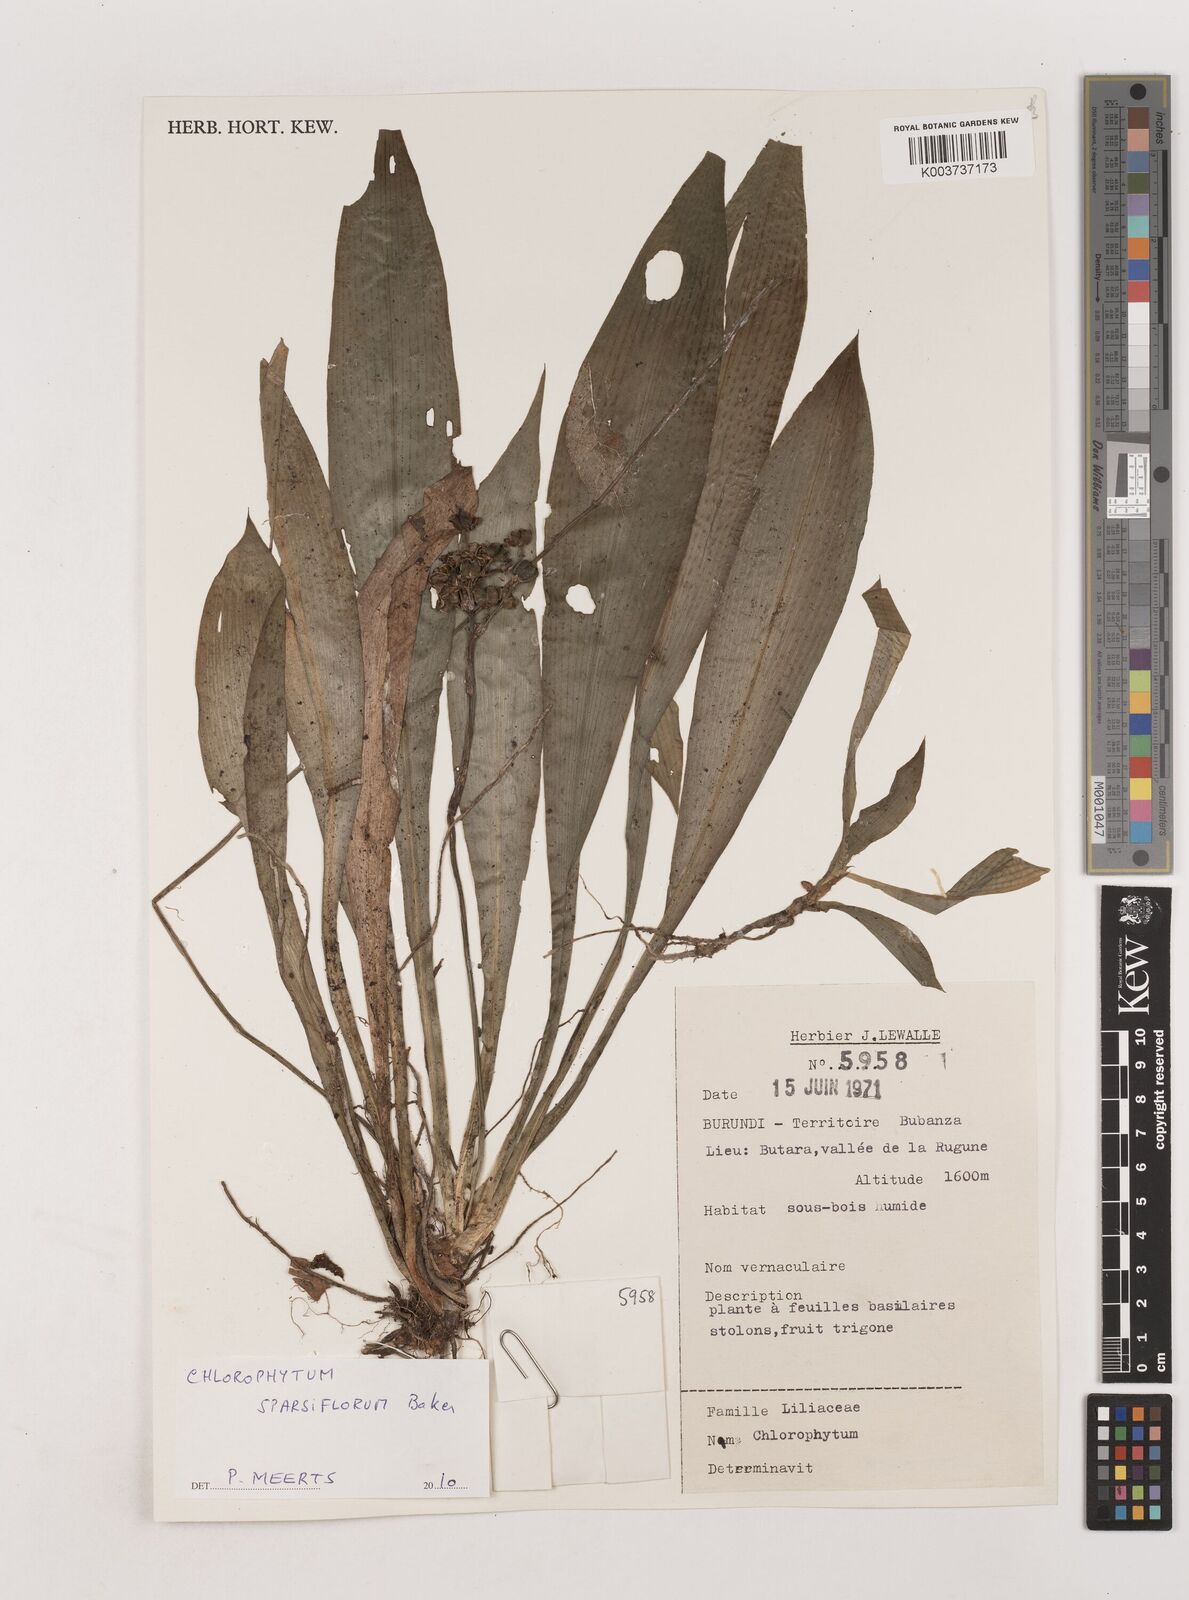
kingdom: Plantae
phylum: Tracheophyta
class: Liliopsida
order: Asparagales
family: Asparagaceae
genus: Chlorophytum
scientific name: Chlorophytum sparsiflorum
